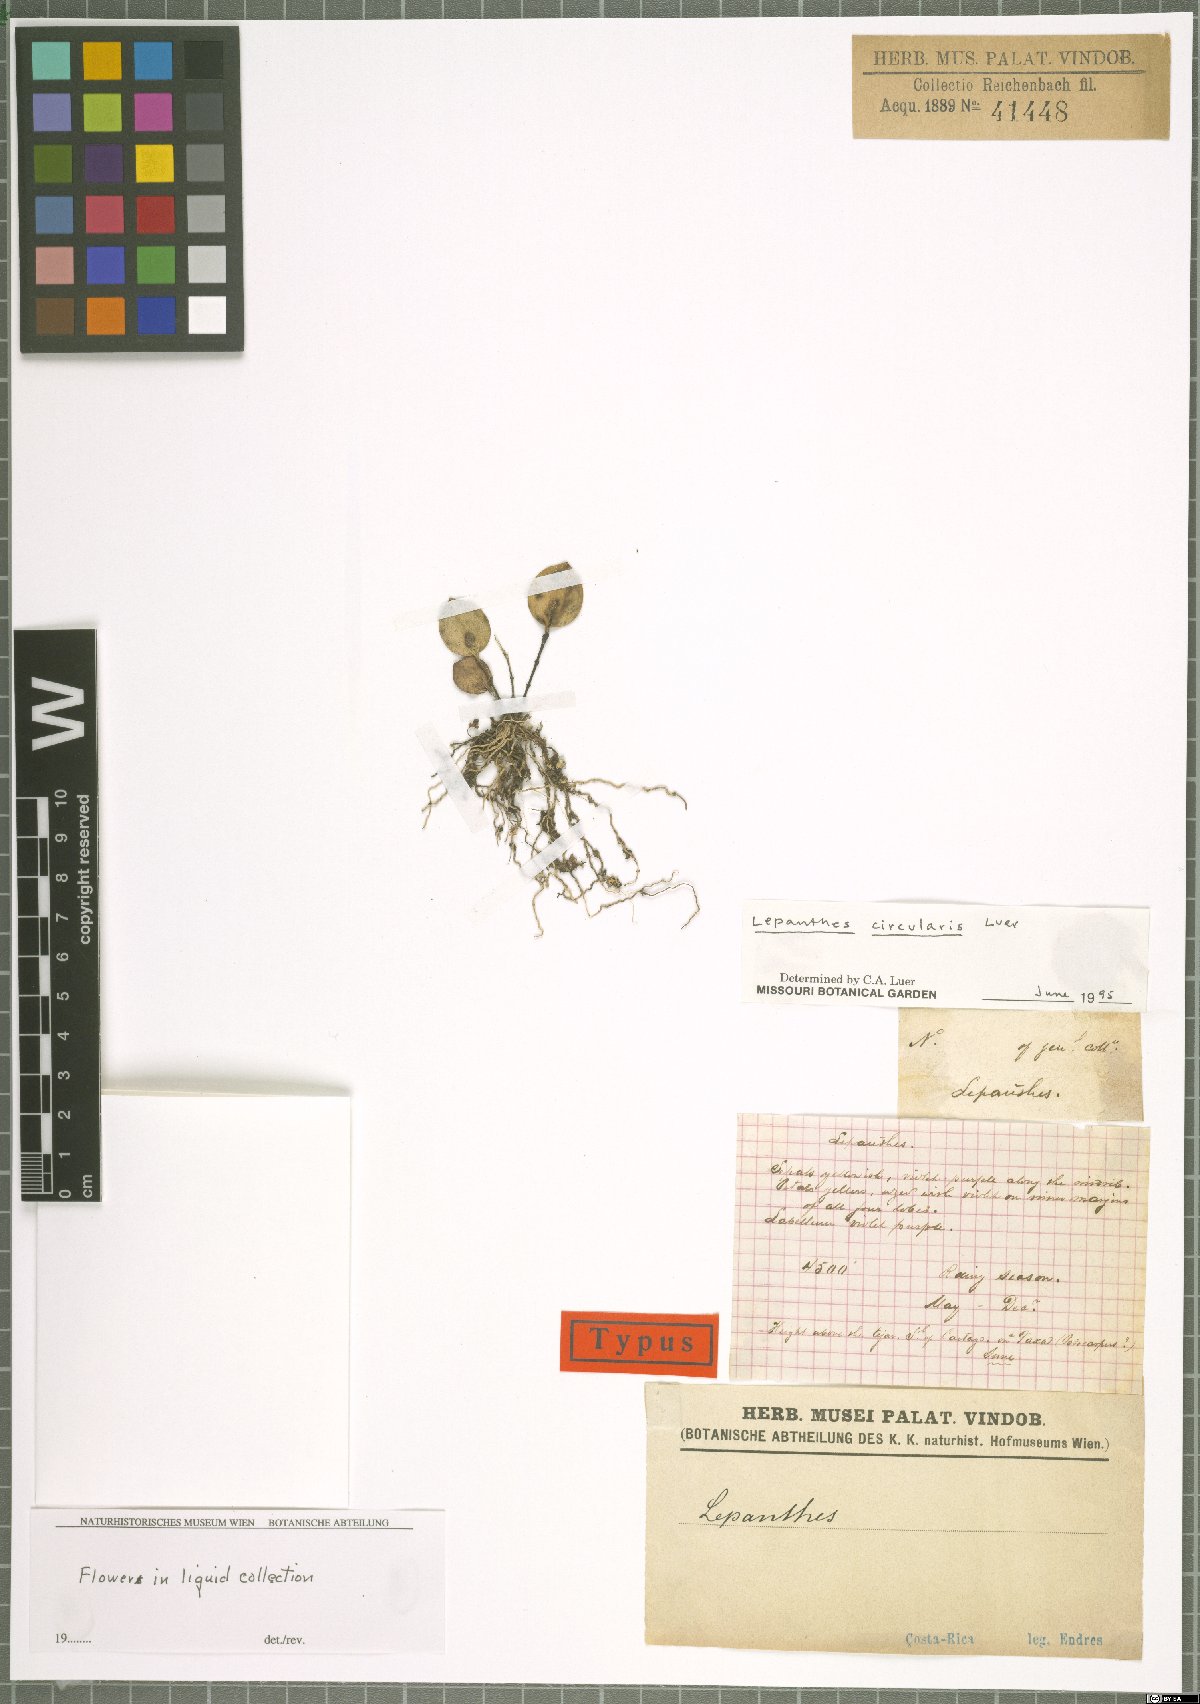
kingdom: Plantae
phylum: Tracheophyta
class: Liliopsida
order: Asparagales
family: Orchidaceae
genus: Lepanthes
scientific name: Lepanthes circularis
